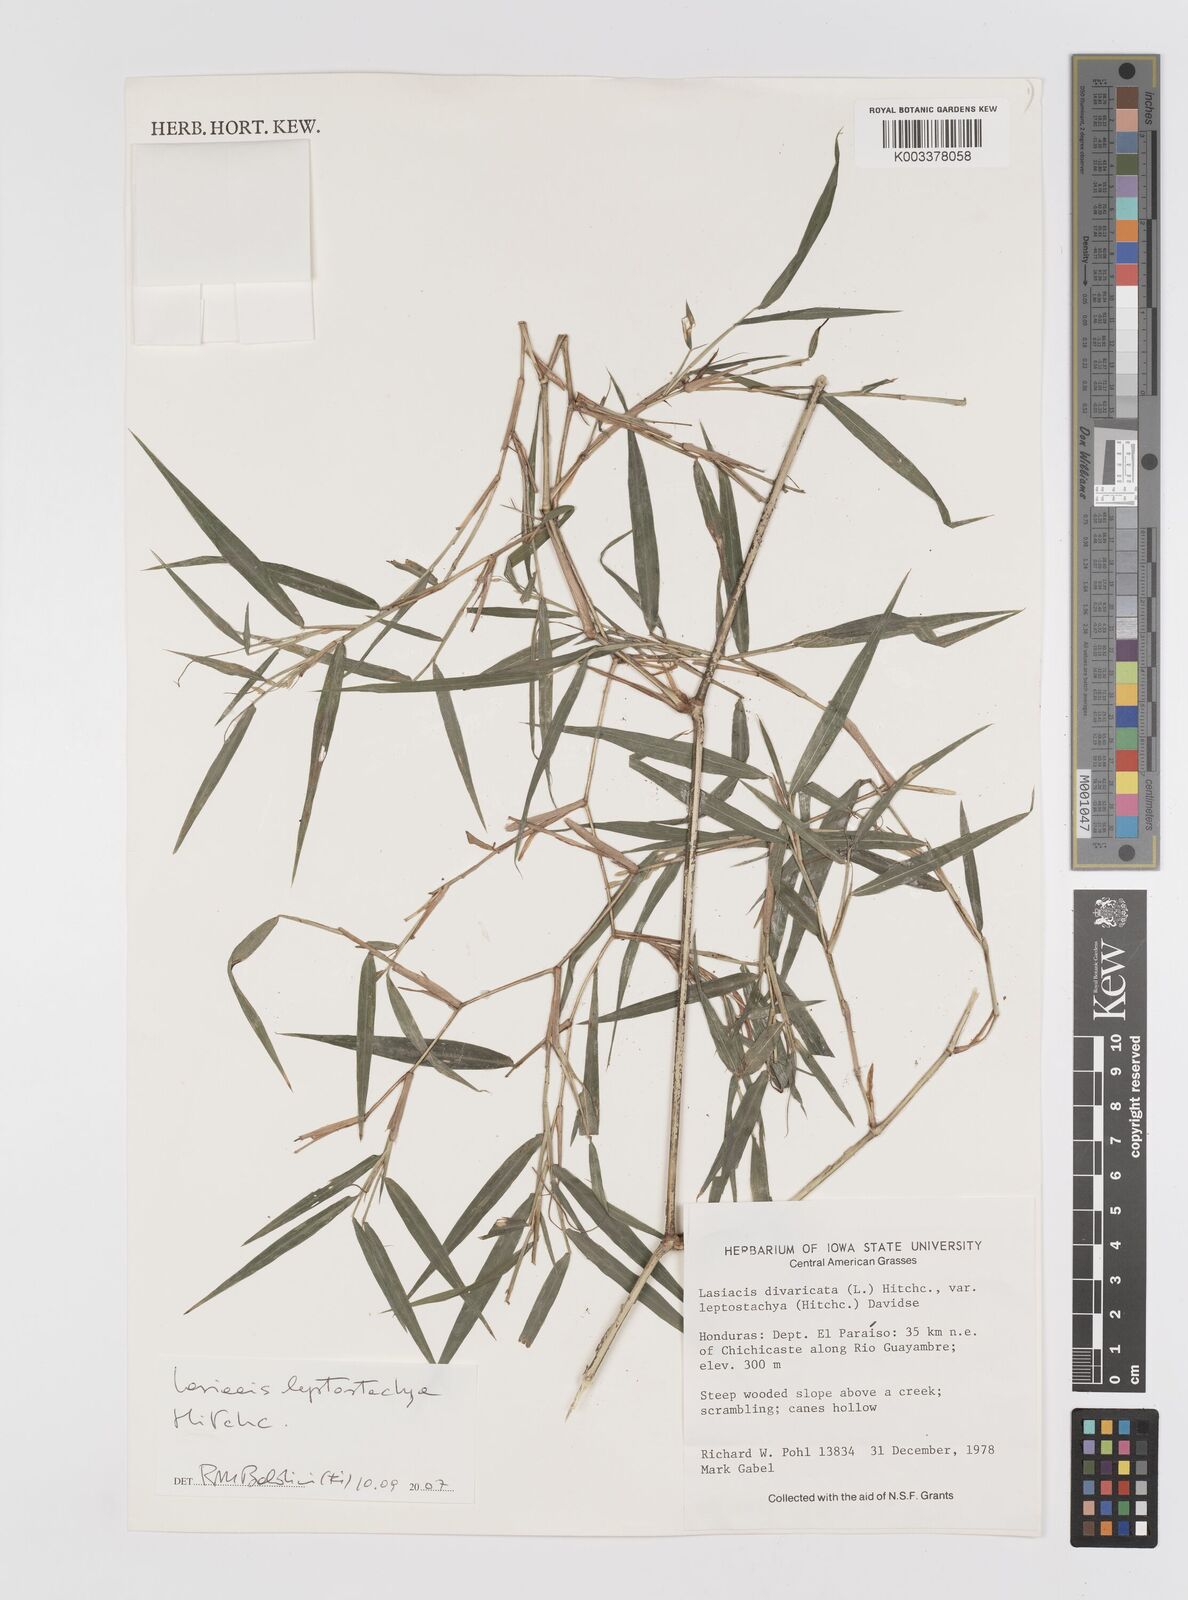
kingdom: Plantae
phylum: Tracheophyta
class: Liliopsida
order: Poales
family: Poaceae
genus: Lasiacis
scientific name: Lasiacis divaricata
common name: Smallcane
